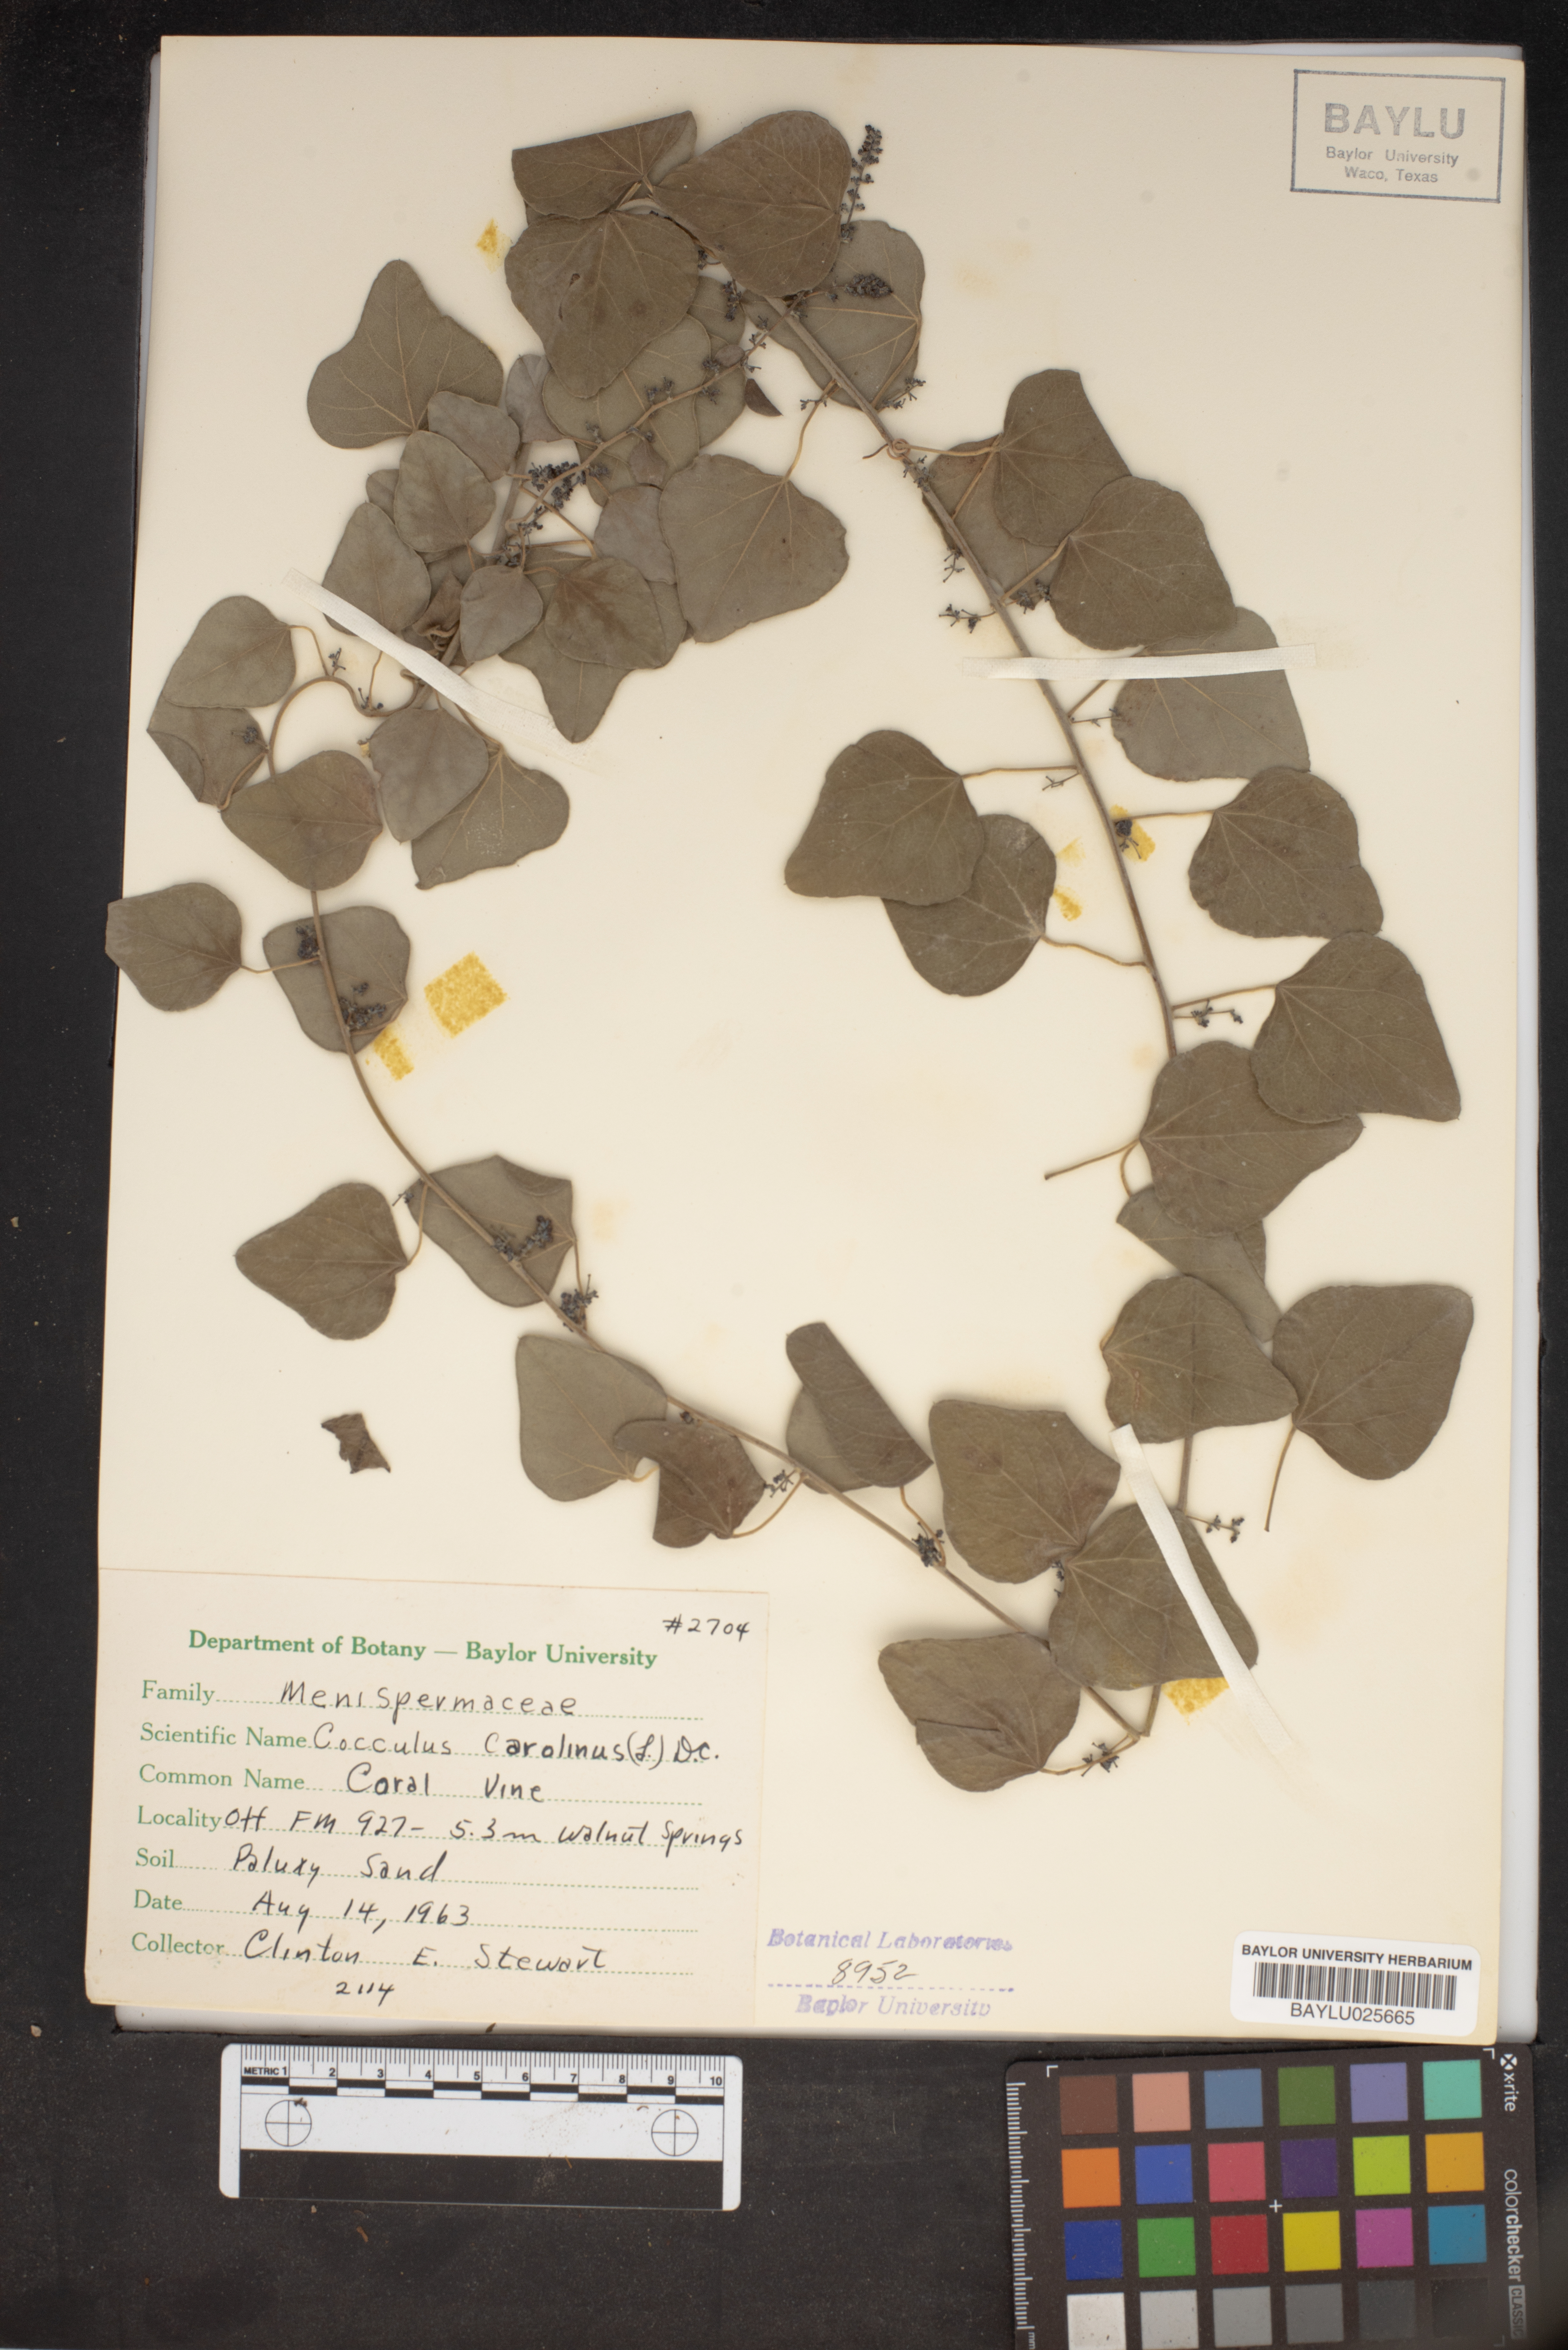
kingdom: Plantae
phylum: Tracheophyta
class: Magnoliopsida
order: Ranunculales
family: Menispermaceae
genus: Cocculus
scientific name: Cocculus carolinus
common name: Carolina moonseed
